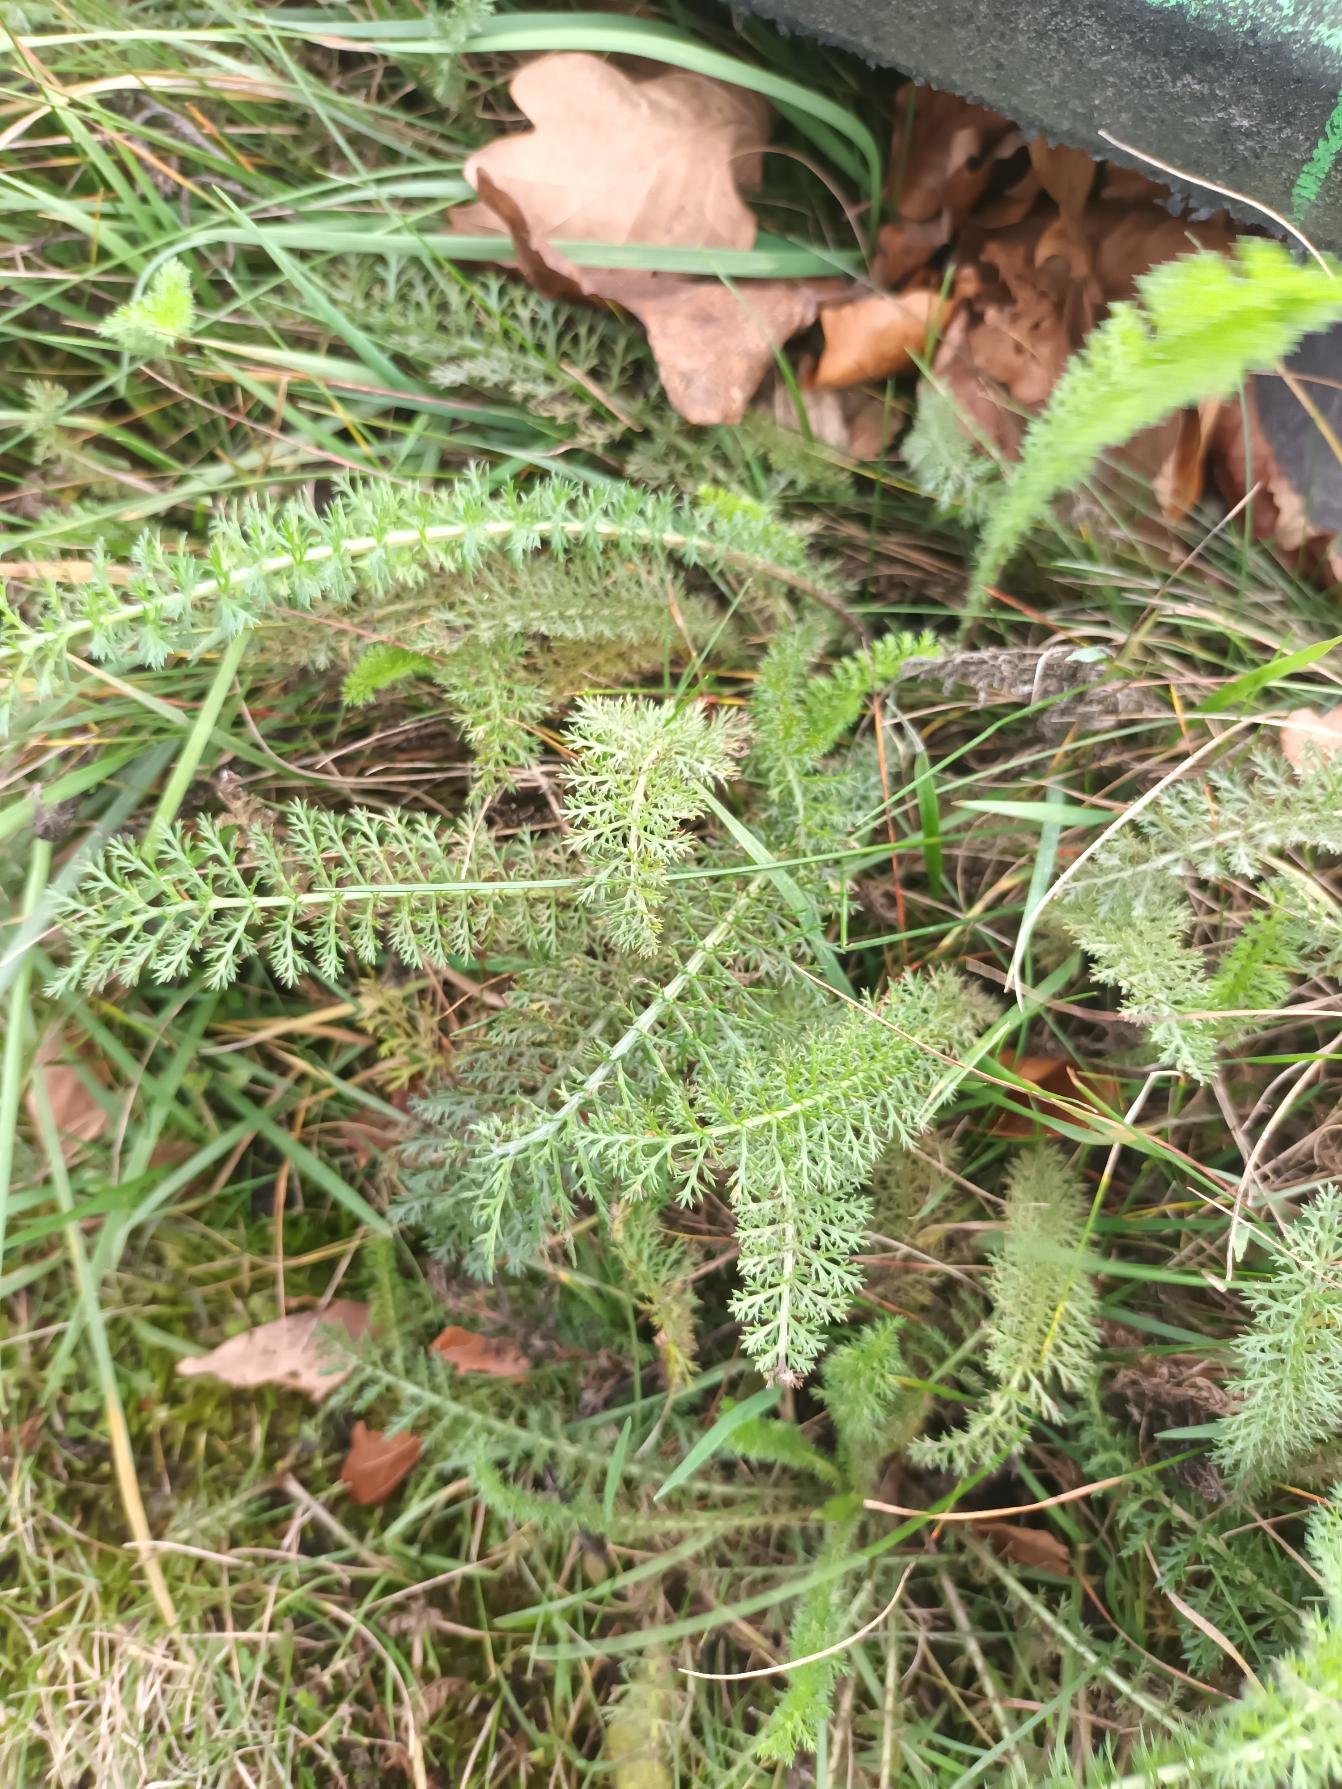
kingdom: Plantae
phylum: Tracheophyta
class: Magnoliopsida
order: Asterales
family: Asteraceae
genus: Achillea
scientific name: Achillea millefolium
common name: Almindelig røllike
